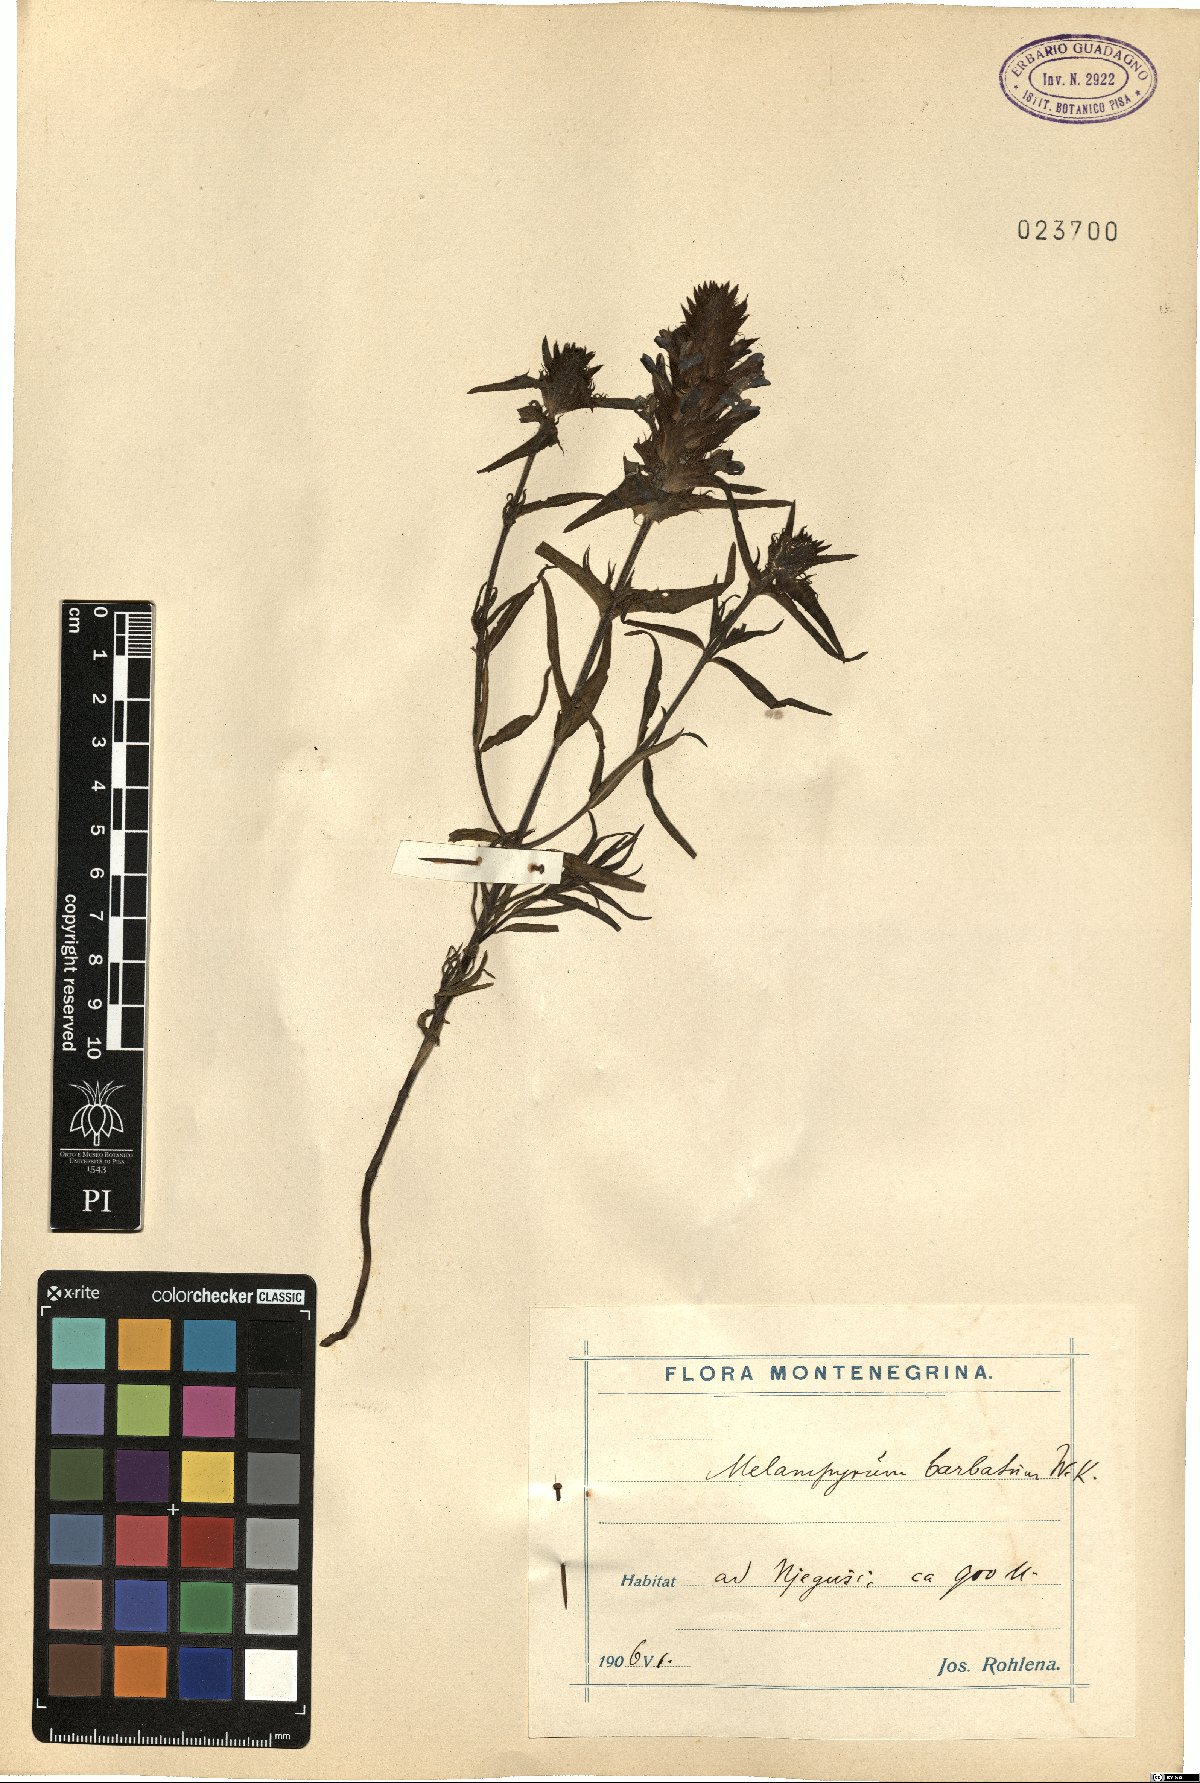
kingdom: Plantae
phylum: Tracheophyta
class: Magnoliopsida
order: Lamiales
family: Orobanchaceae
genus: Melampyrum
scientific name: Melampyrum barbatum
